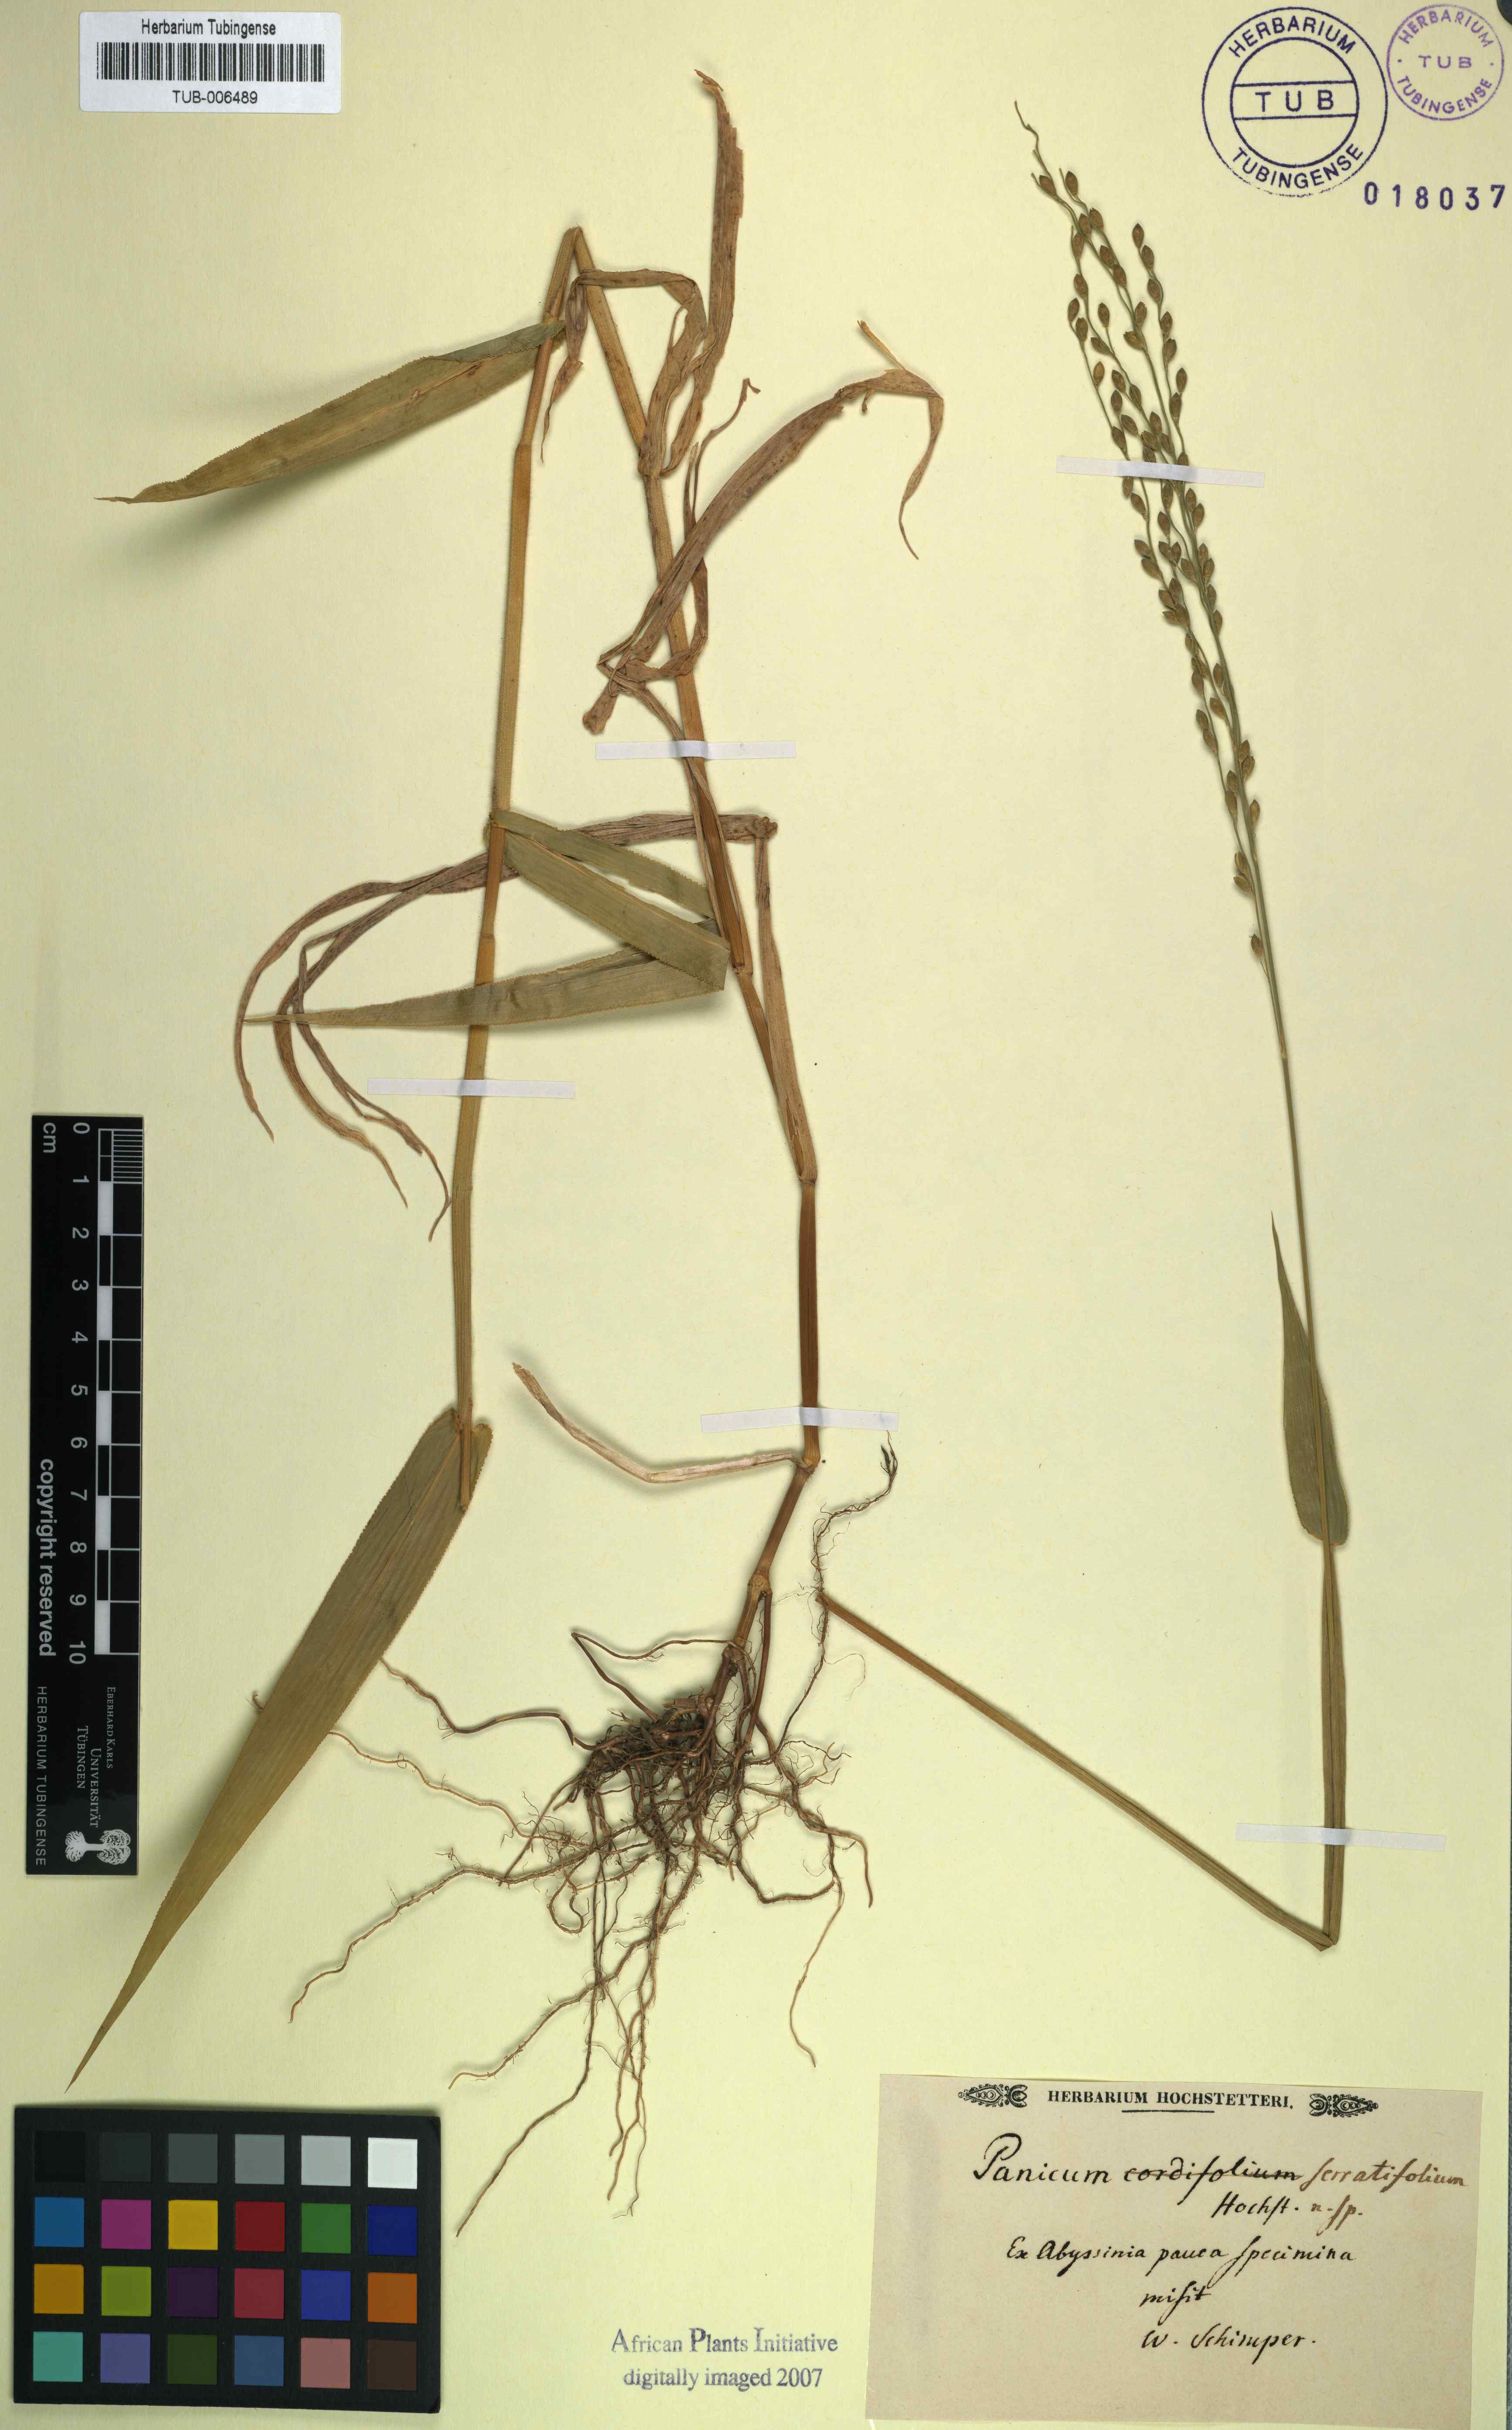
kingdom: Plantae
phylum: Tracheophyta
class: Liliopsida
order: Poales
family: Poaceae
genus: Urochloa
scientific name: Urochloa serrifolia
